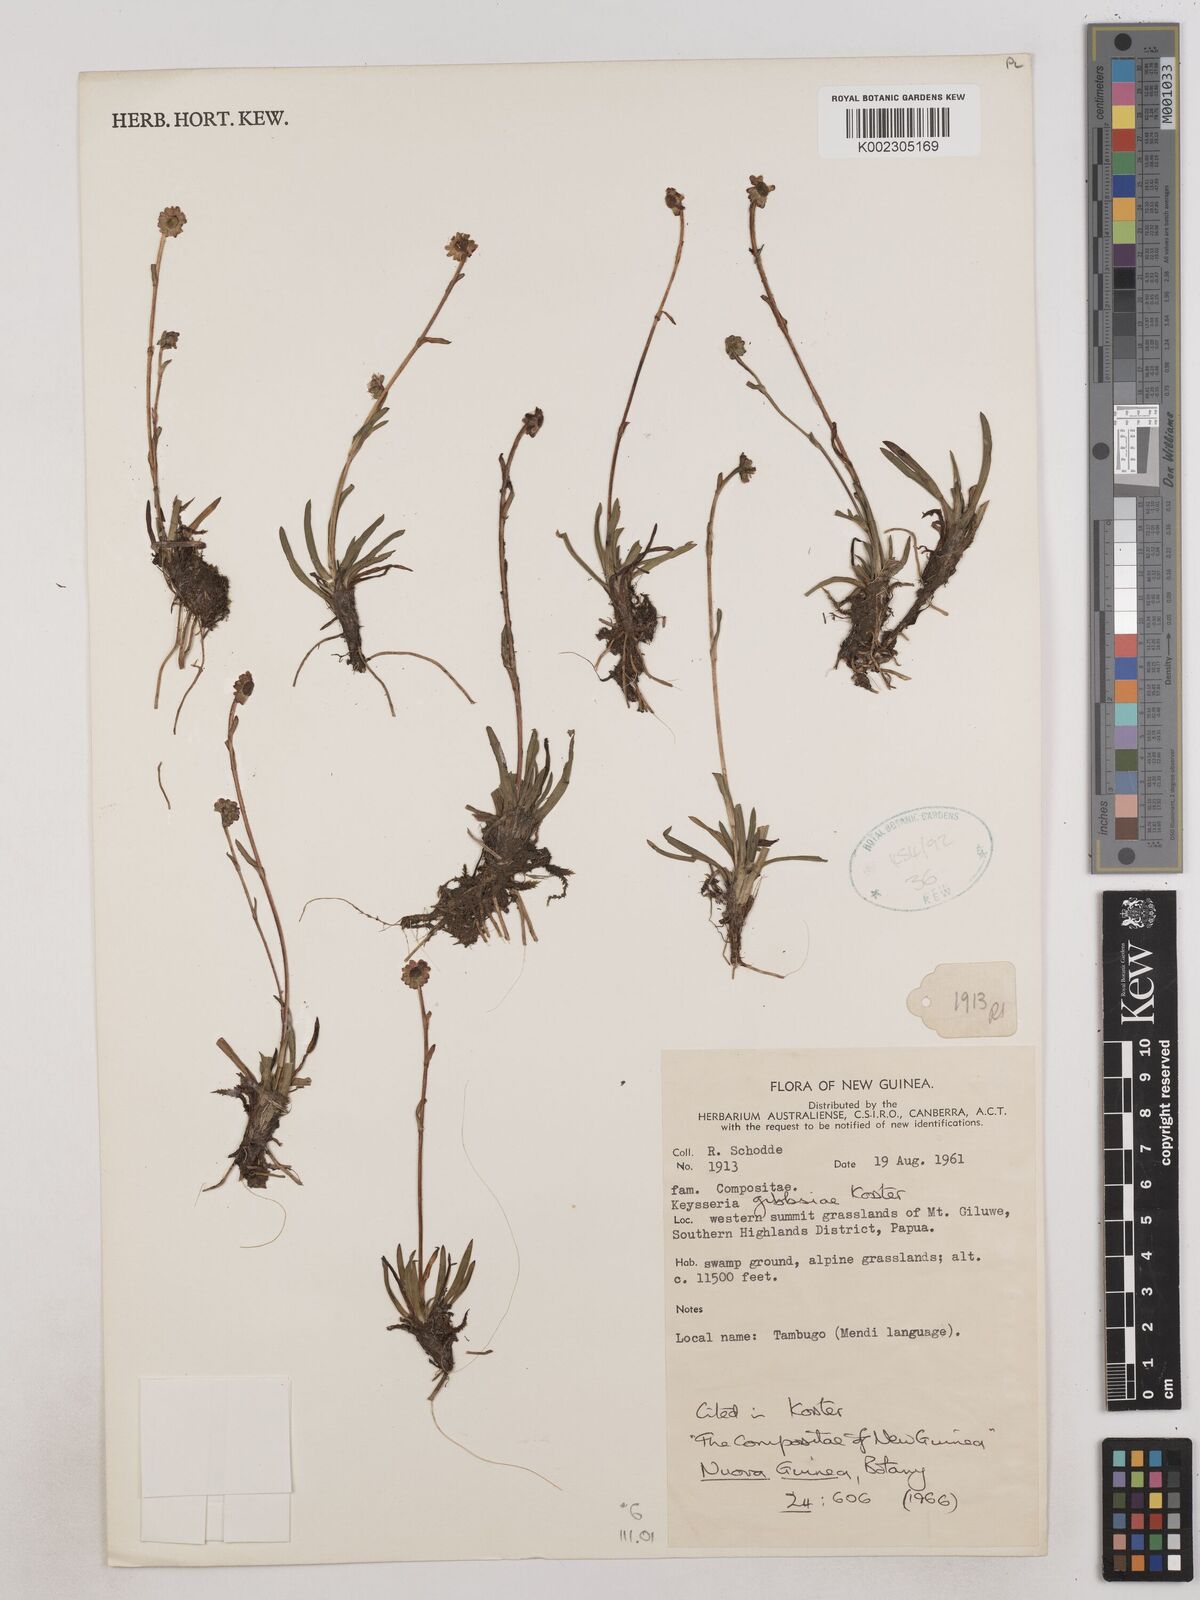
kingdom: Plantae
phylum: Tracheophyta
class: Magnoliopsida
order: Asterales
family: Asteraceae
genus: Keysseria
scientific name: Keysseria gibbsiae
